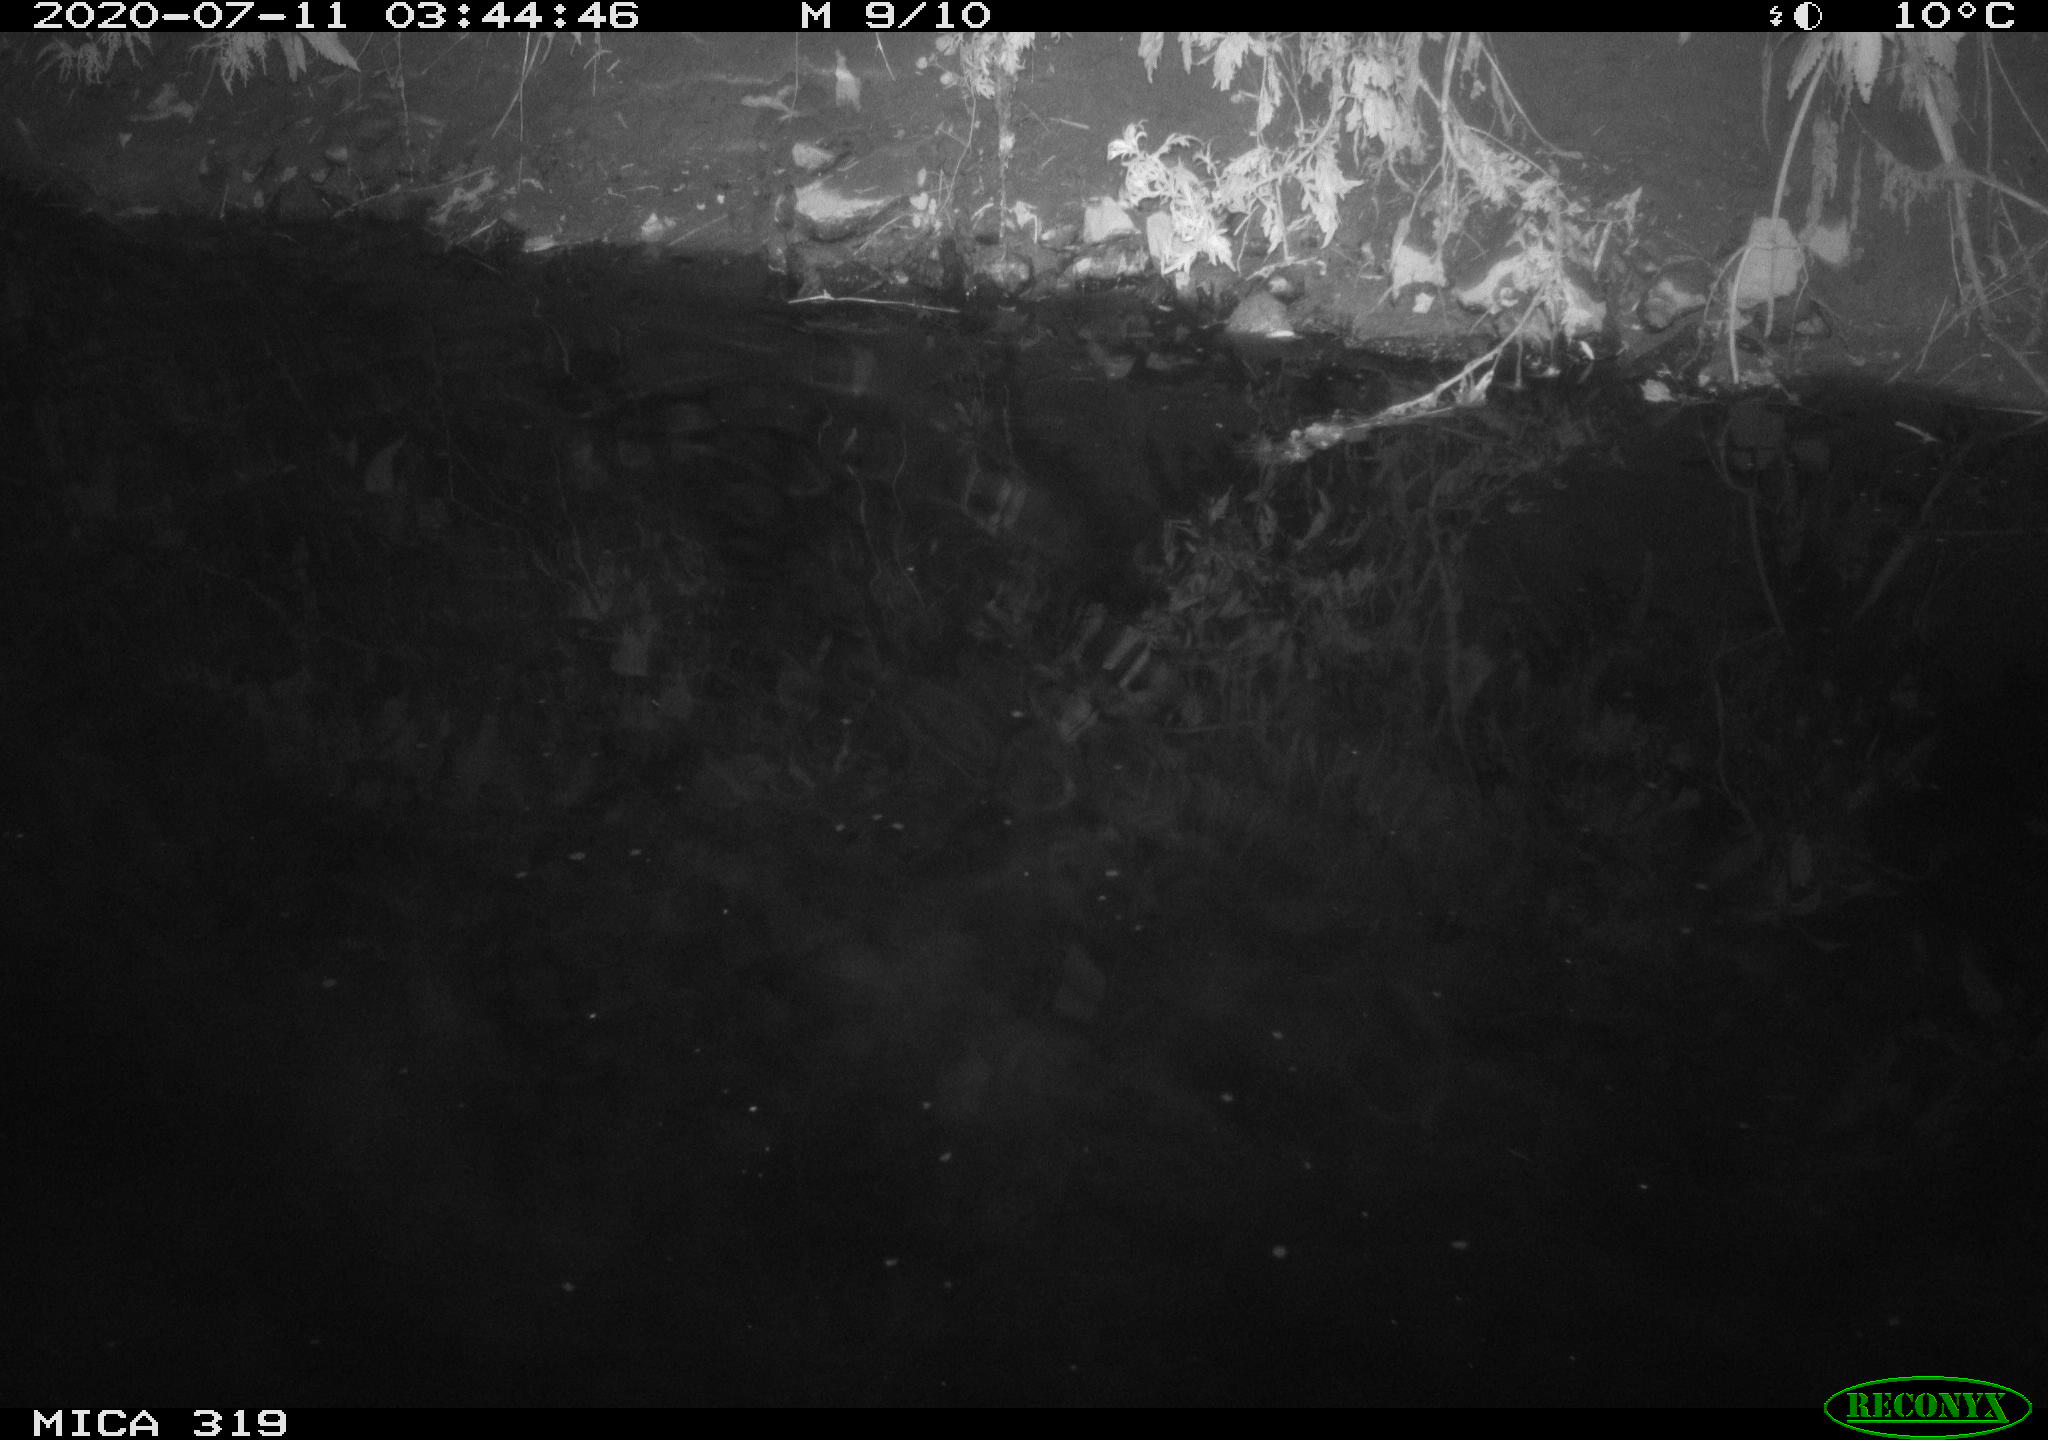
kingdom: Animalia
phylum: Chordata
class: Aves
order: Anseriformes
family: Anatidae
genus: Anas
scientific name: Anas platyrhynchos
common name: Mallard
